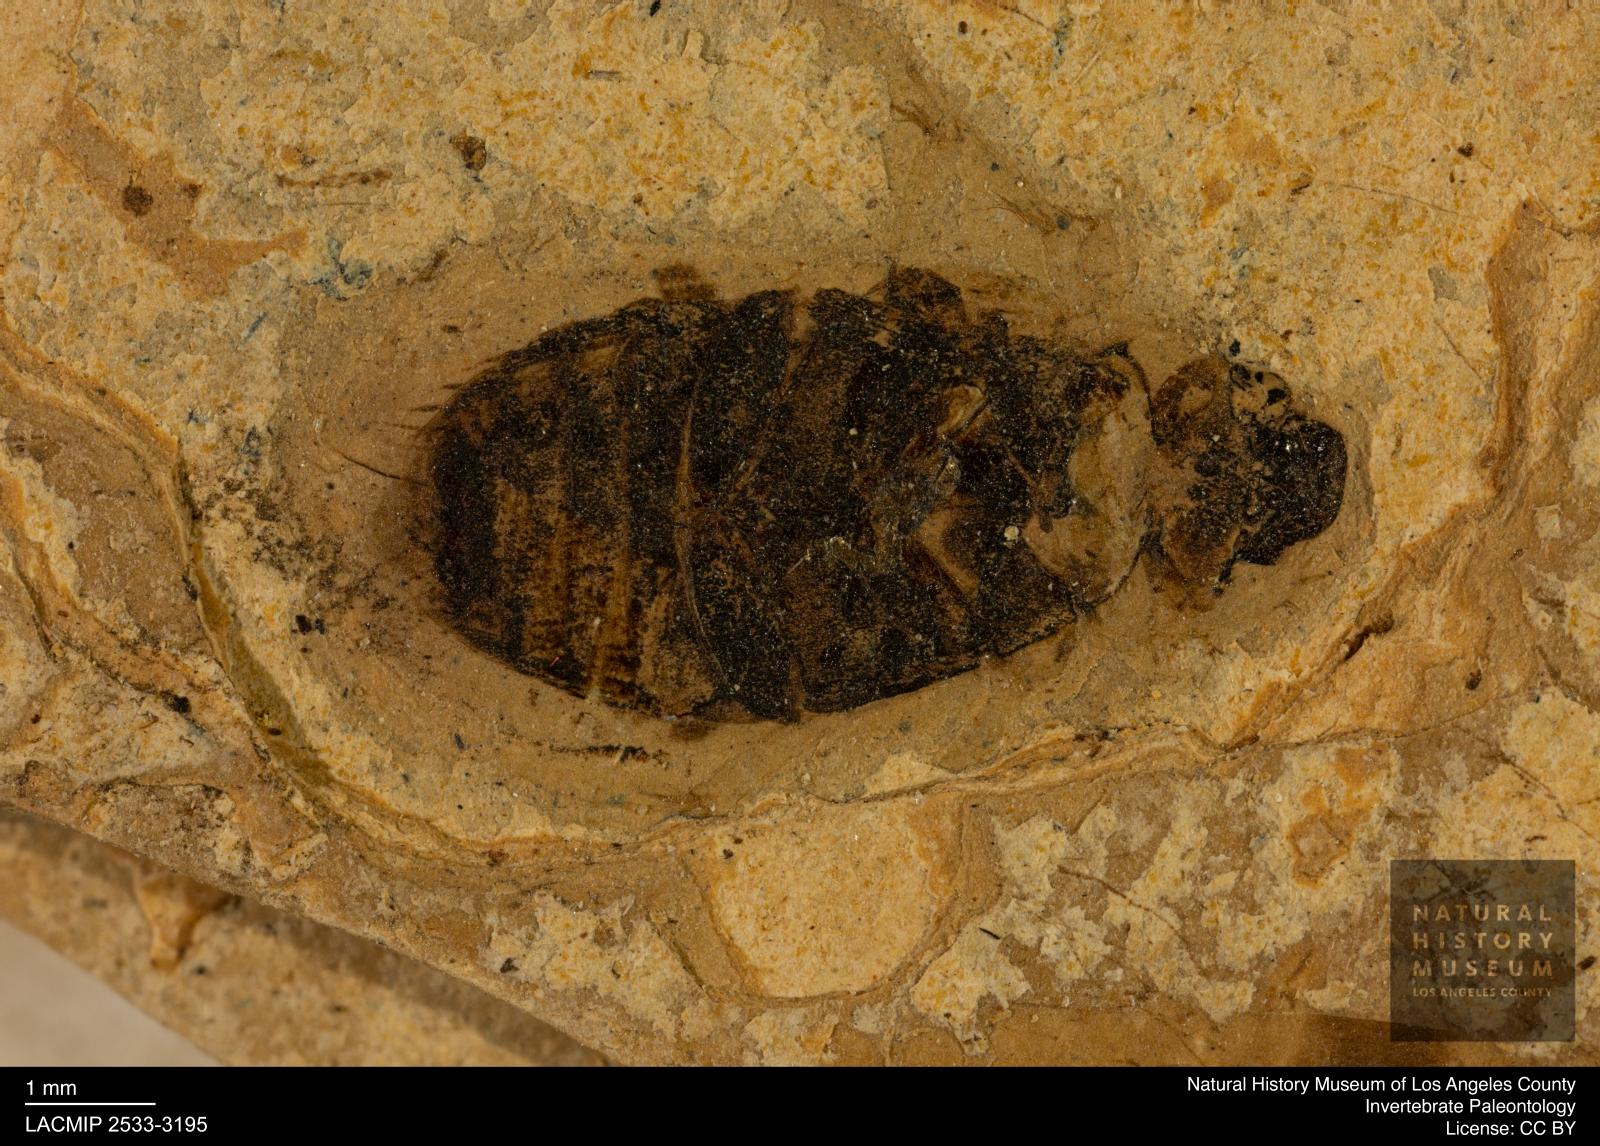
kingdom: Animalia
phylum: Arthropoda
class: Insecta
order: Coleoptera
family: Hydrophilidae
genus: Berosus
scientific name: Berosus morticinus
